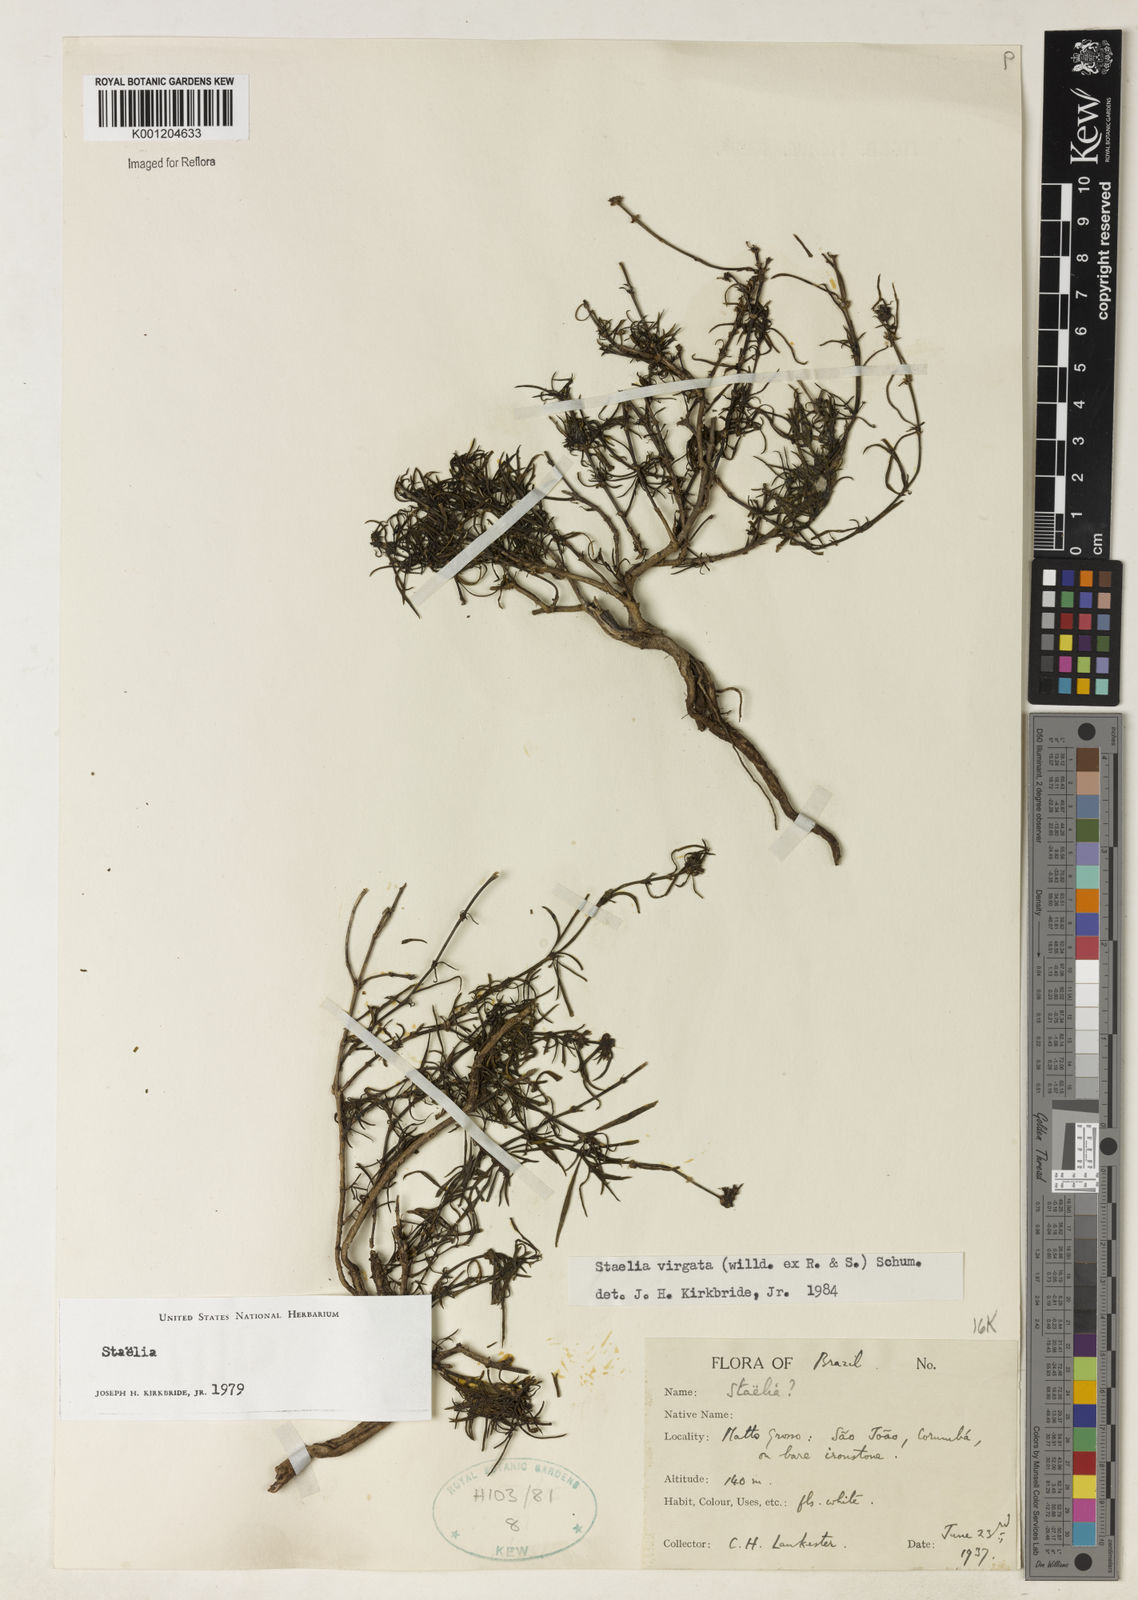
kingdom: Plantae
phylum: Tracheophyta
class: Magnoliopsida
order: Gentianales
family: Rubiaceae
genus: Staelia
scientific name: Staelia virgata
